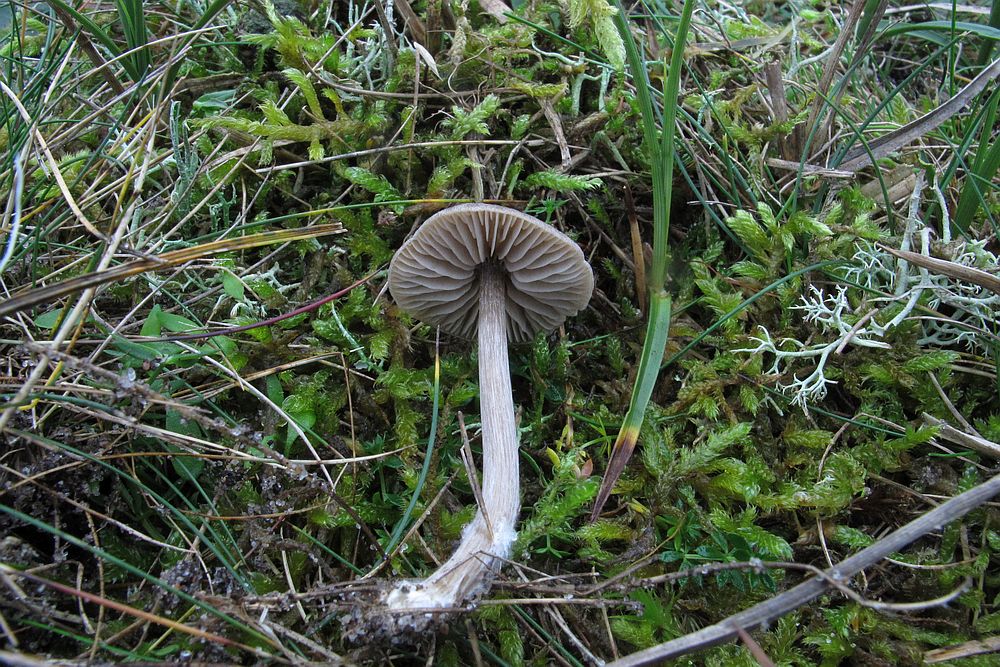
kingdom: Fungi
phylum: Basidiomycota
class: Agaricomycetes
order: Agaricales
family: Entolomataceae
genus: Entoloma
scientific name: Entoloma ortonii
